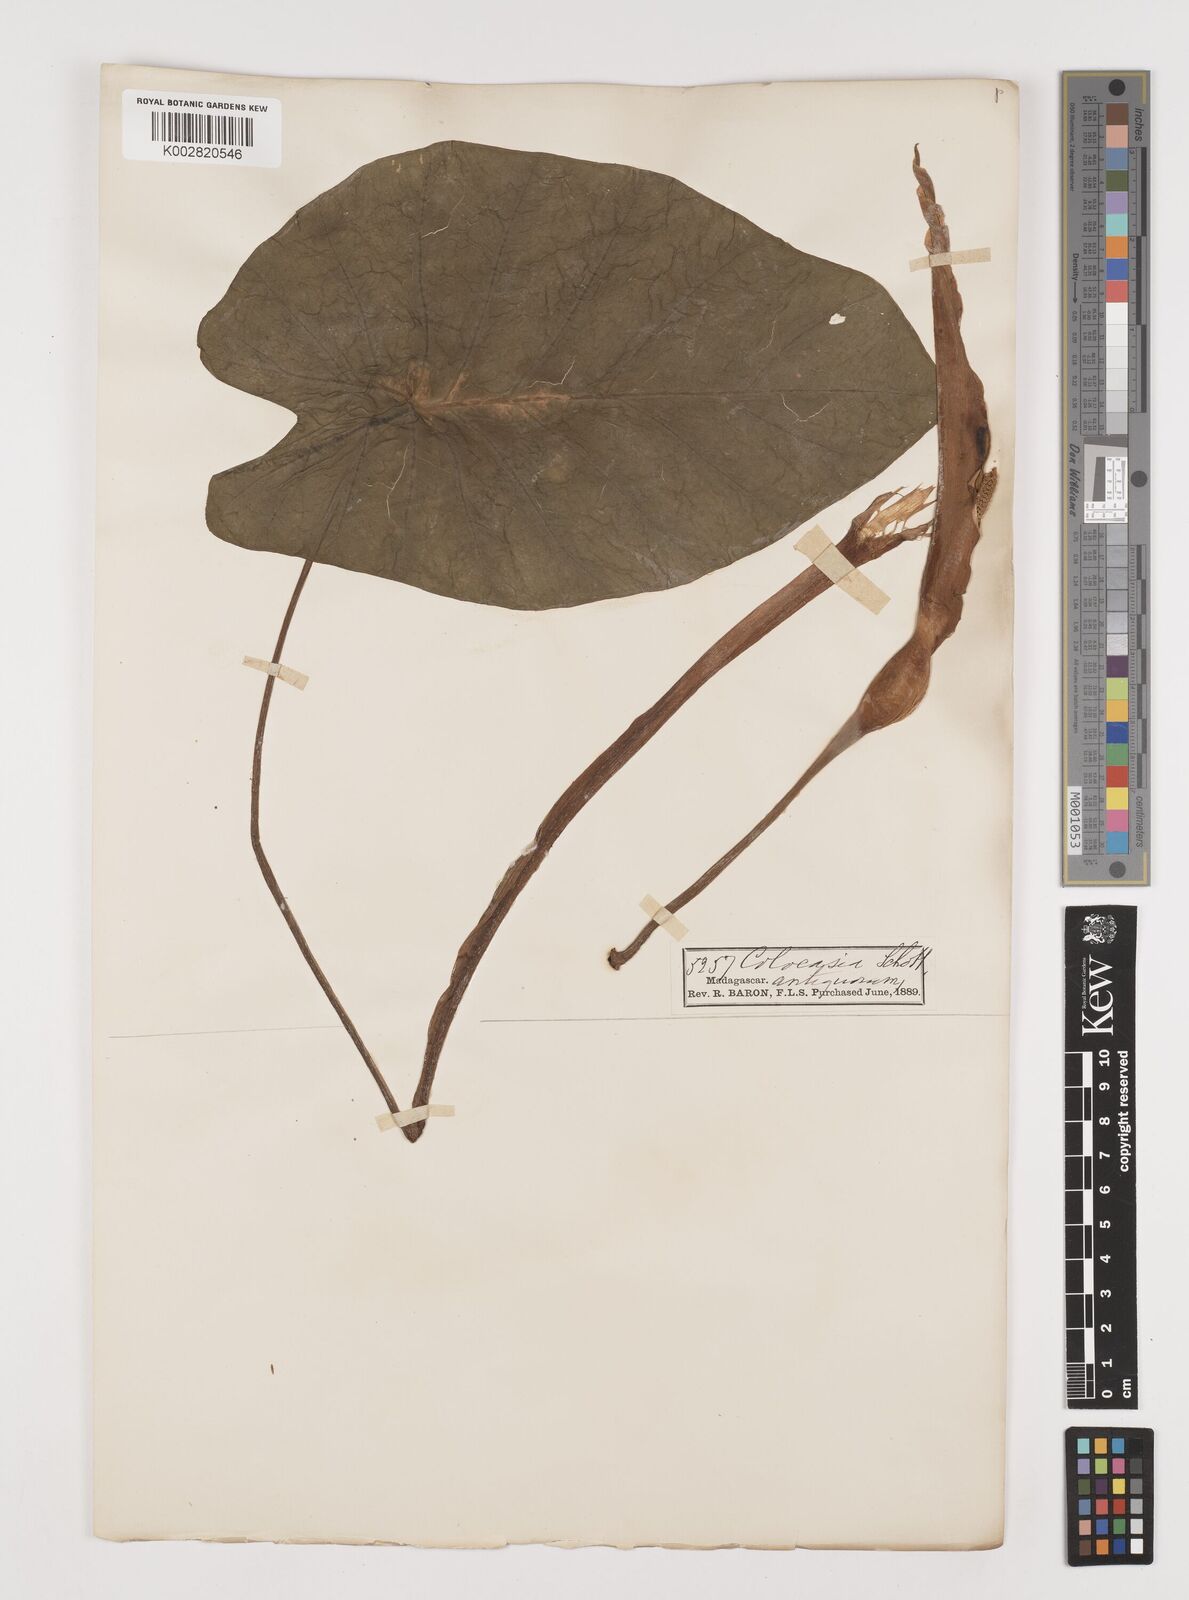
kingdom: Plantae
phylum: Tracheophyta
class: Liliopsida
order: Alismatales
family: Araceae
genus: Colocasia
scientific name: Colocasia esculenta
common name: Taro
